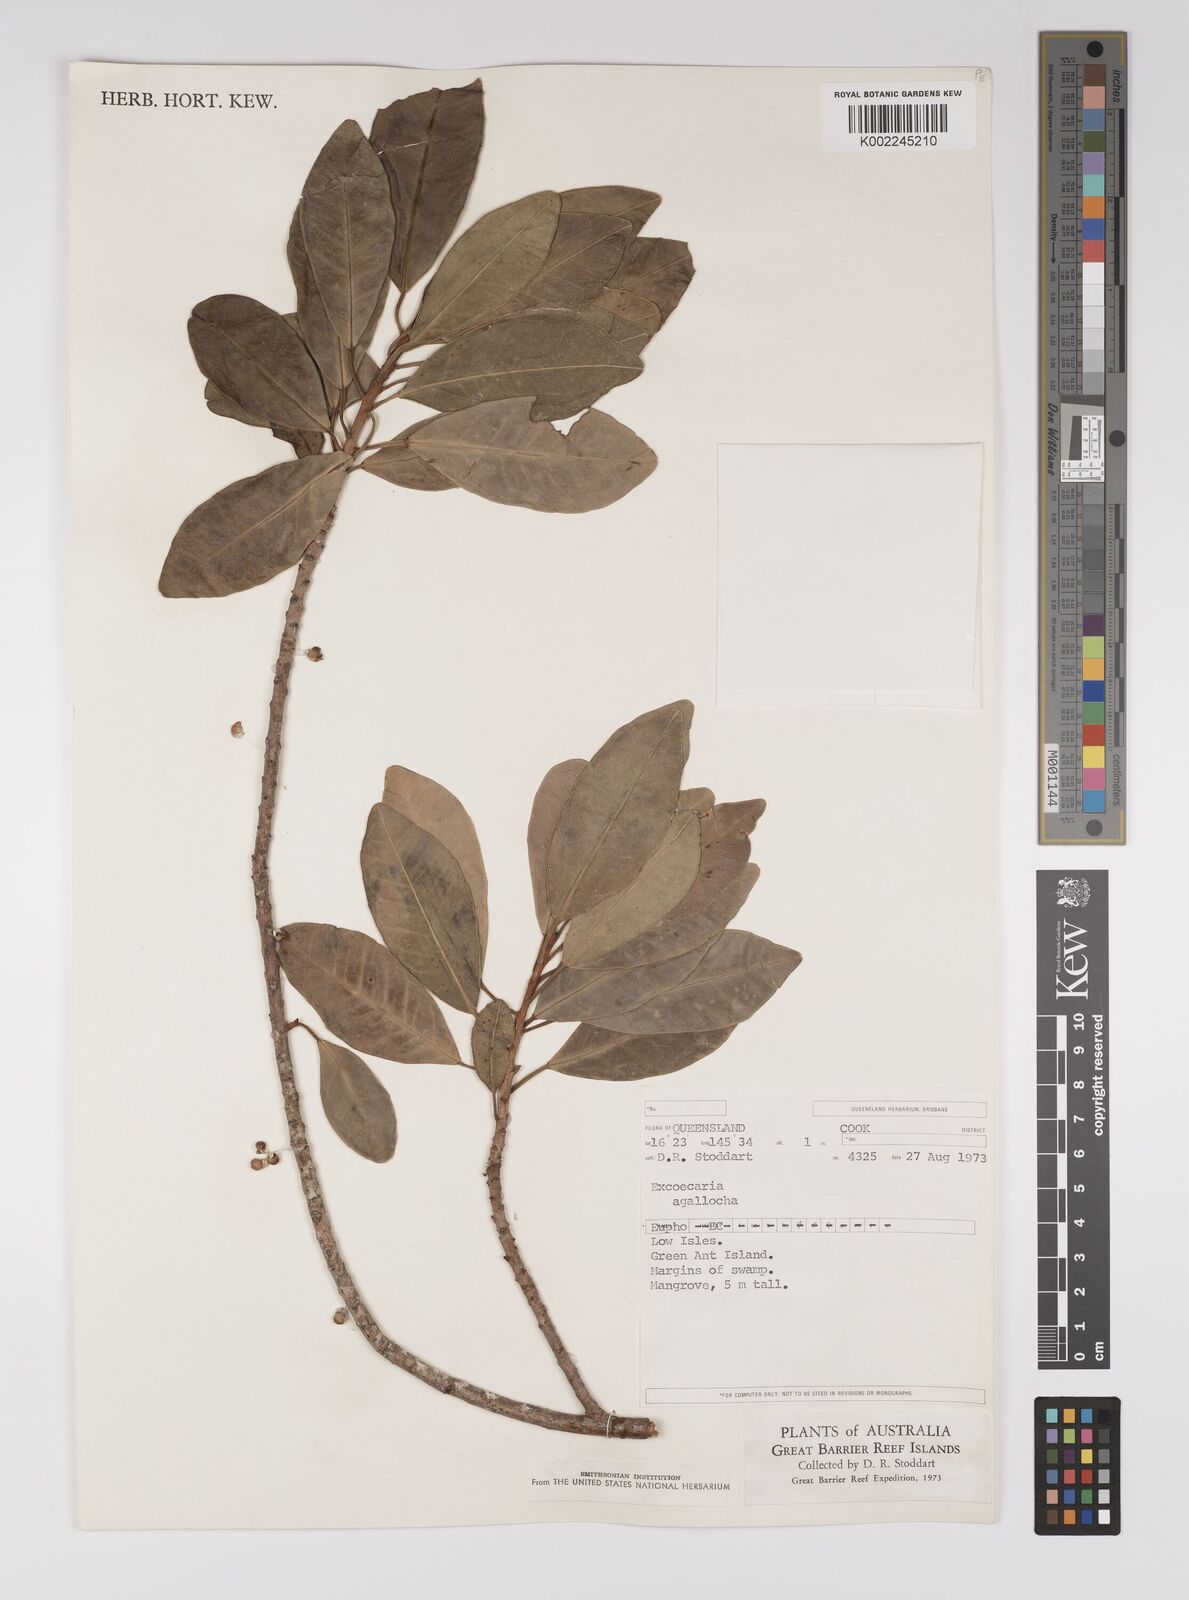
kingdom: Plantae
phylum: Tracheophyta
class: Magnoliopsida
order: Malpighiales
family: Euphorbiaceae
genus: Excoecaria
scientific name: Excoecaria agallocha
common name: River poisontree
